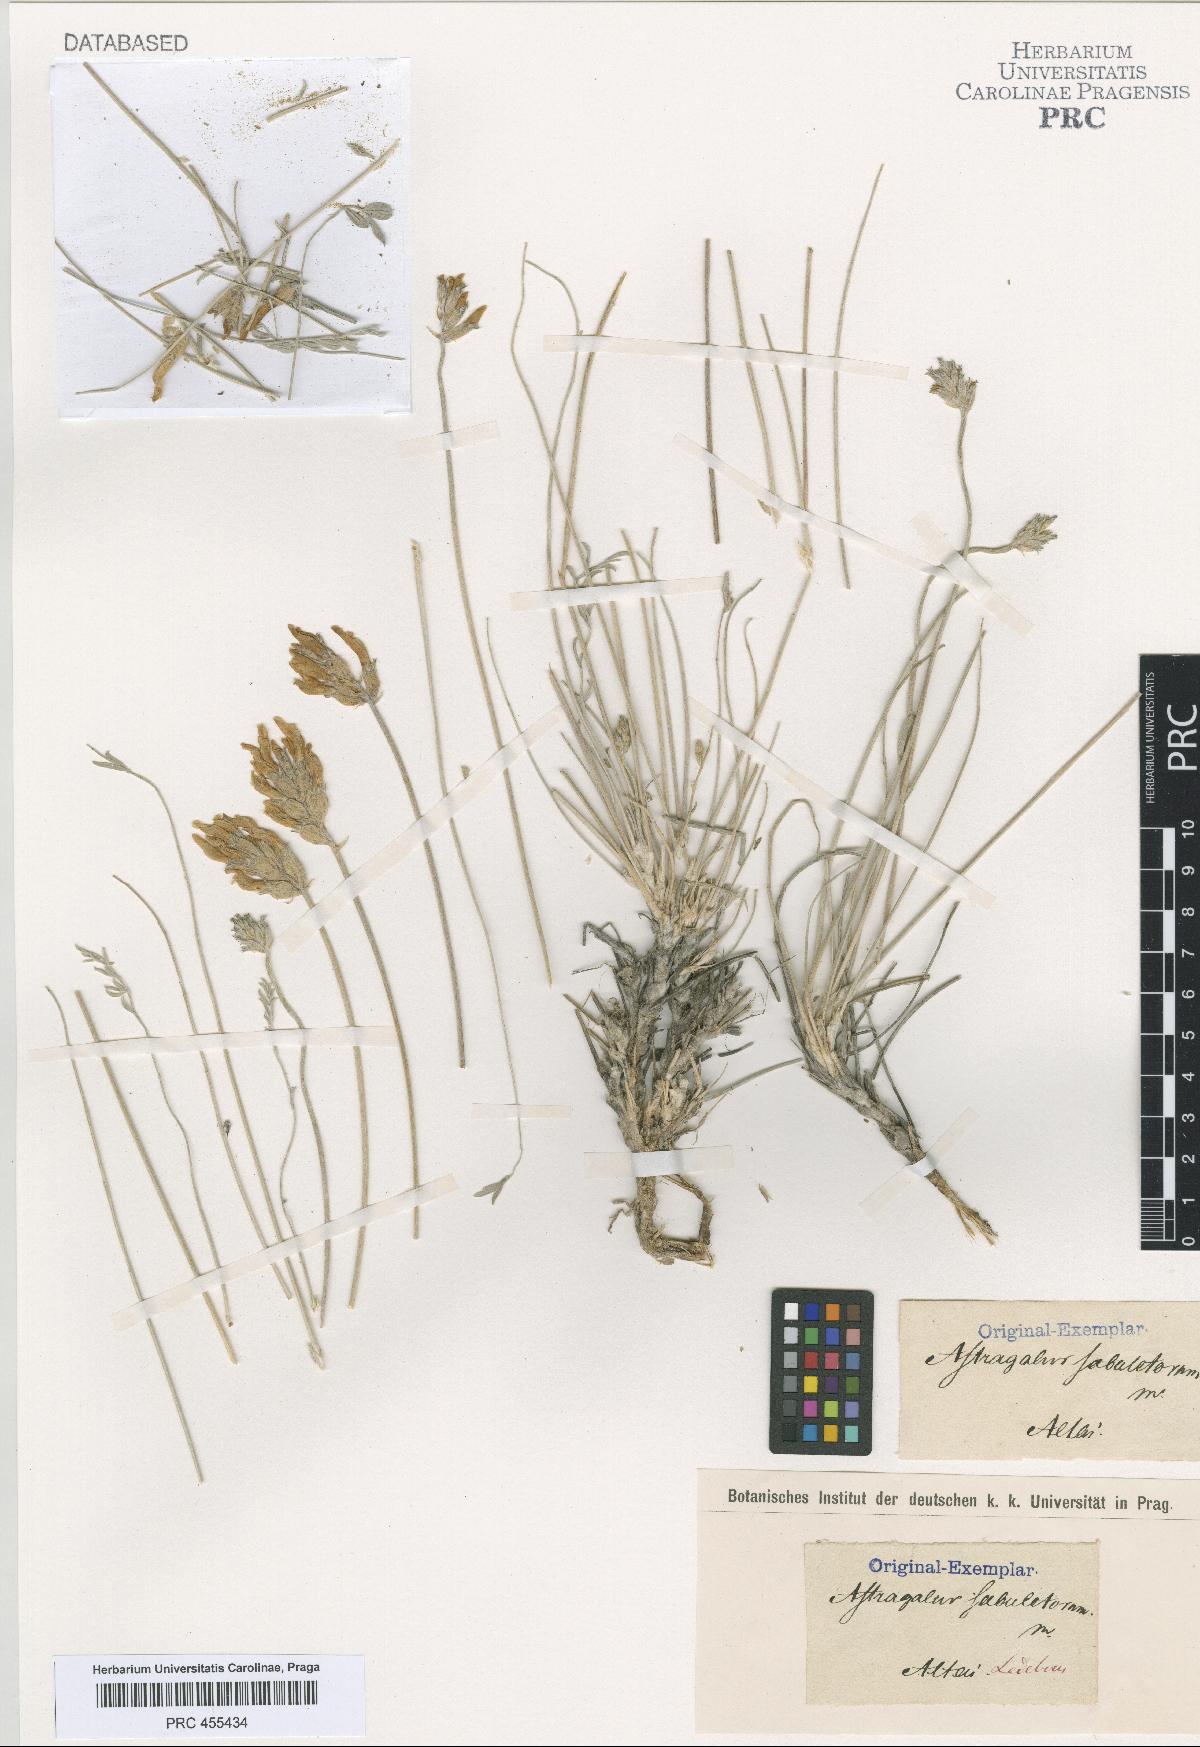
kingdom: Plantae
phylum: Tracheophyta
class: Magnoliopsida
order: Fabales
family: Fabaceae
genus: Astragalus
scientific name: Astragalus sabuletorum
